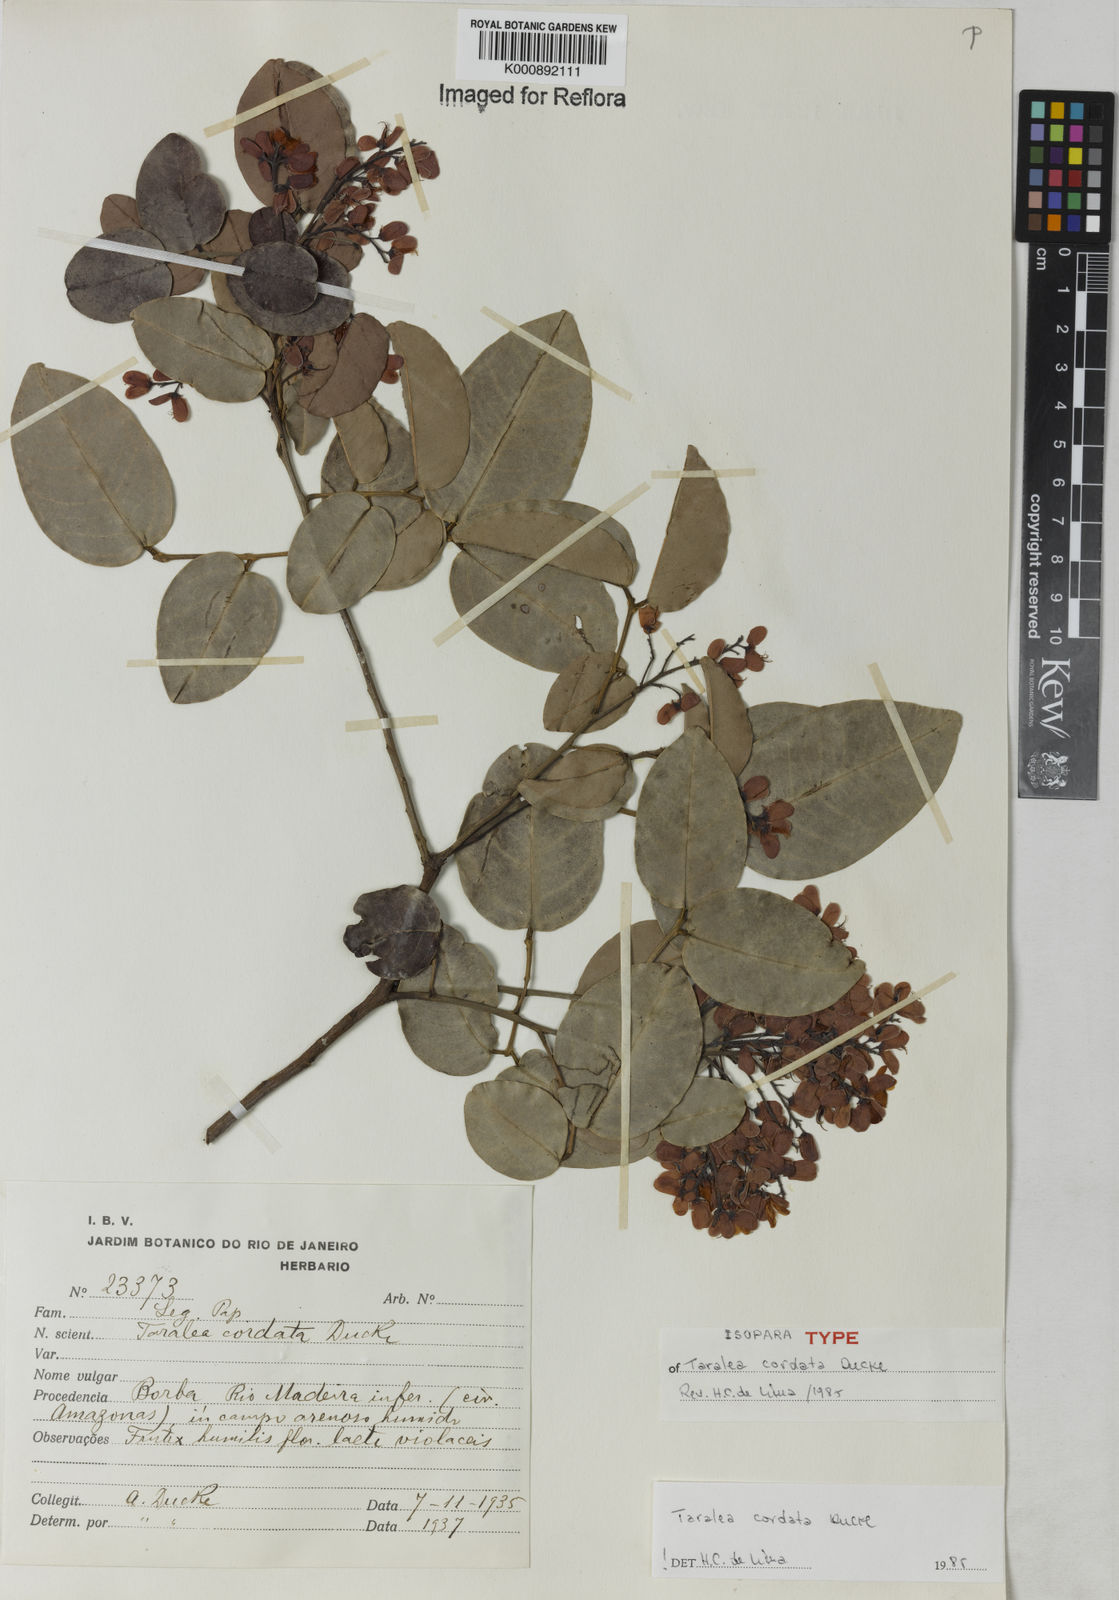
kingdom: Plantae
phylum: Tracheophyta
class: Magnoliopsida
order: Fabales
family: Fabaceae
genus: Taralea
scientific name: Taralea cordata
